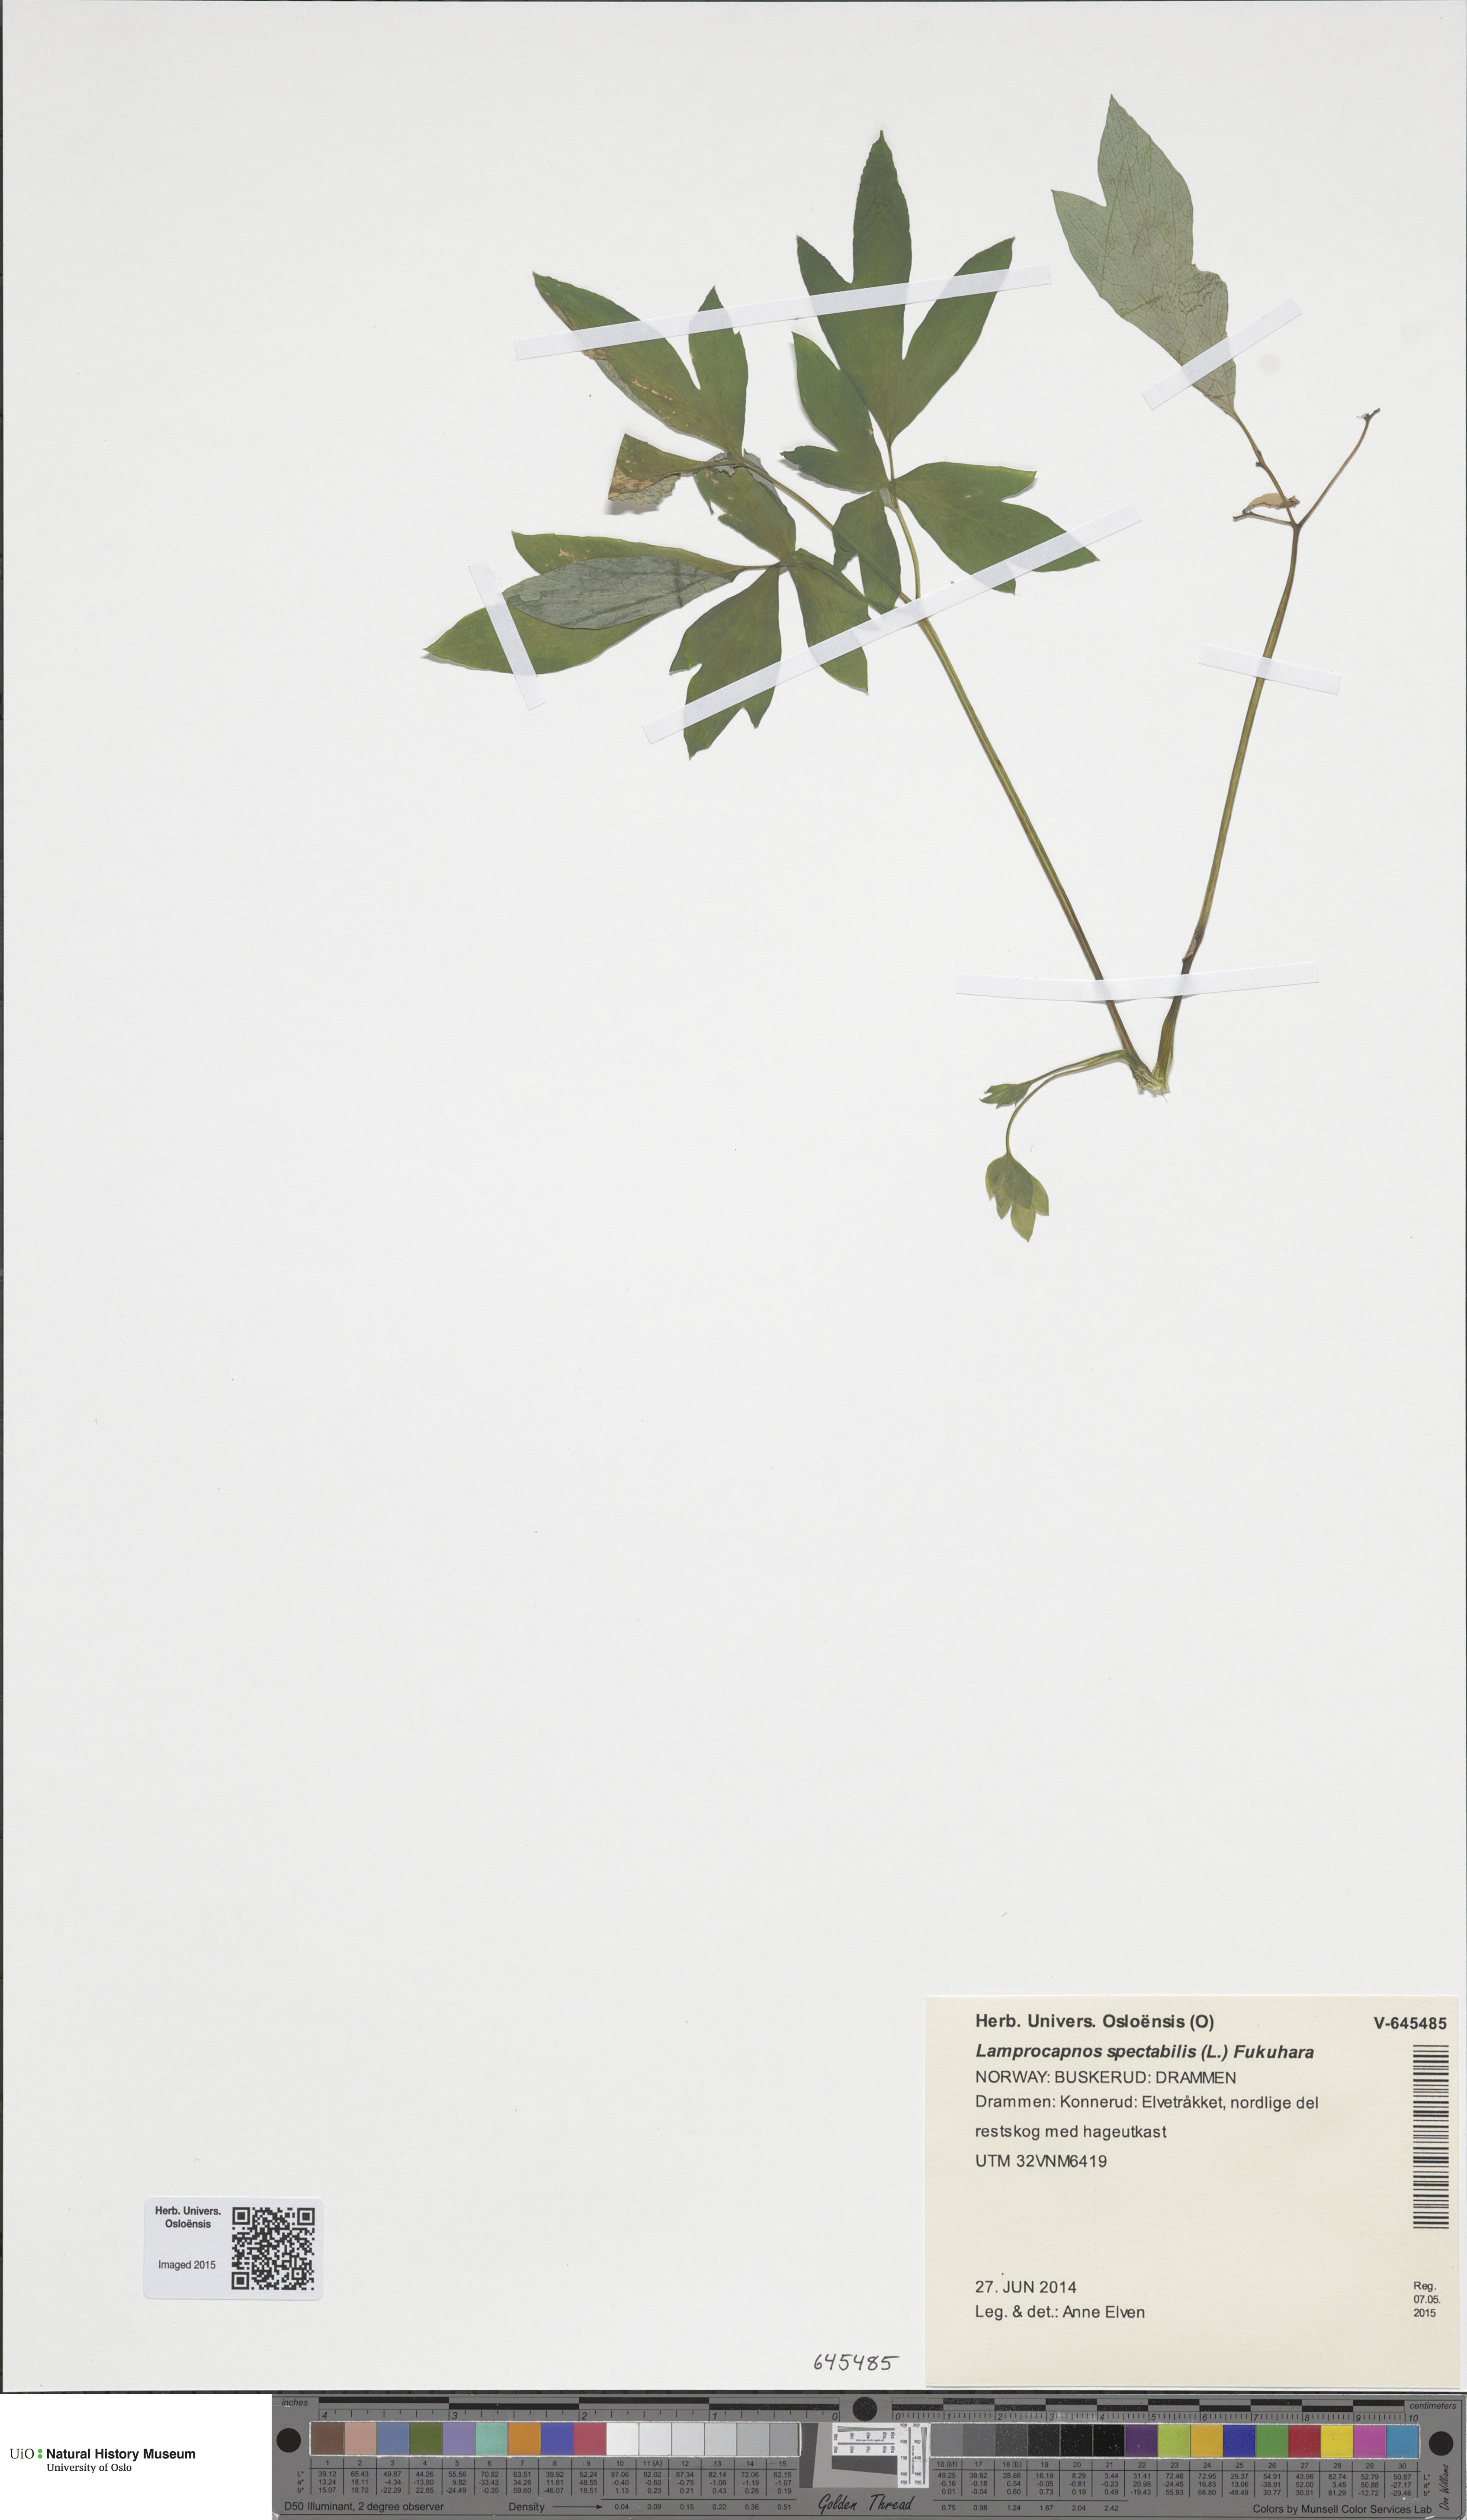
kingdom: Plantae
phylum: Tracheophyta
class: Magnoliopsida
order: Ranunculales
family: Papaveraceae
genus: Lamprocapnos
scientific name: Lamprocapnos spectabilis
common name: Asian bleeding-heart
